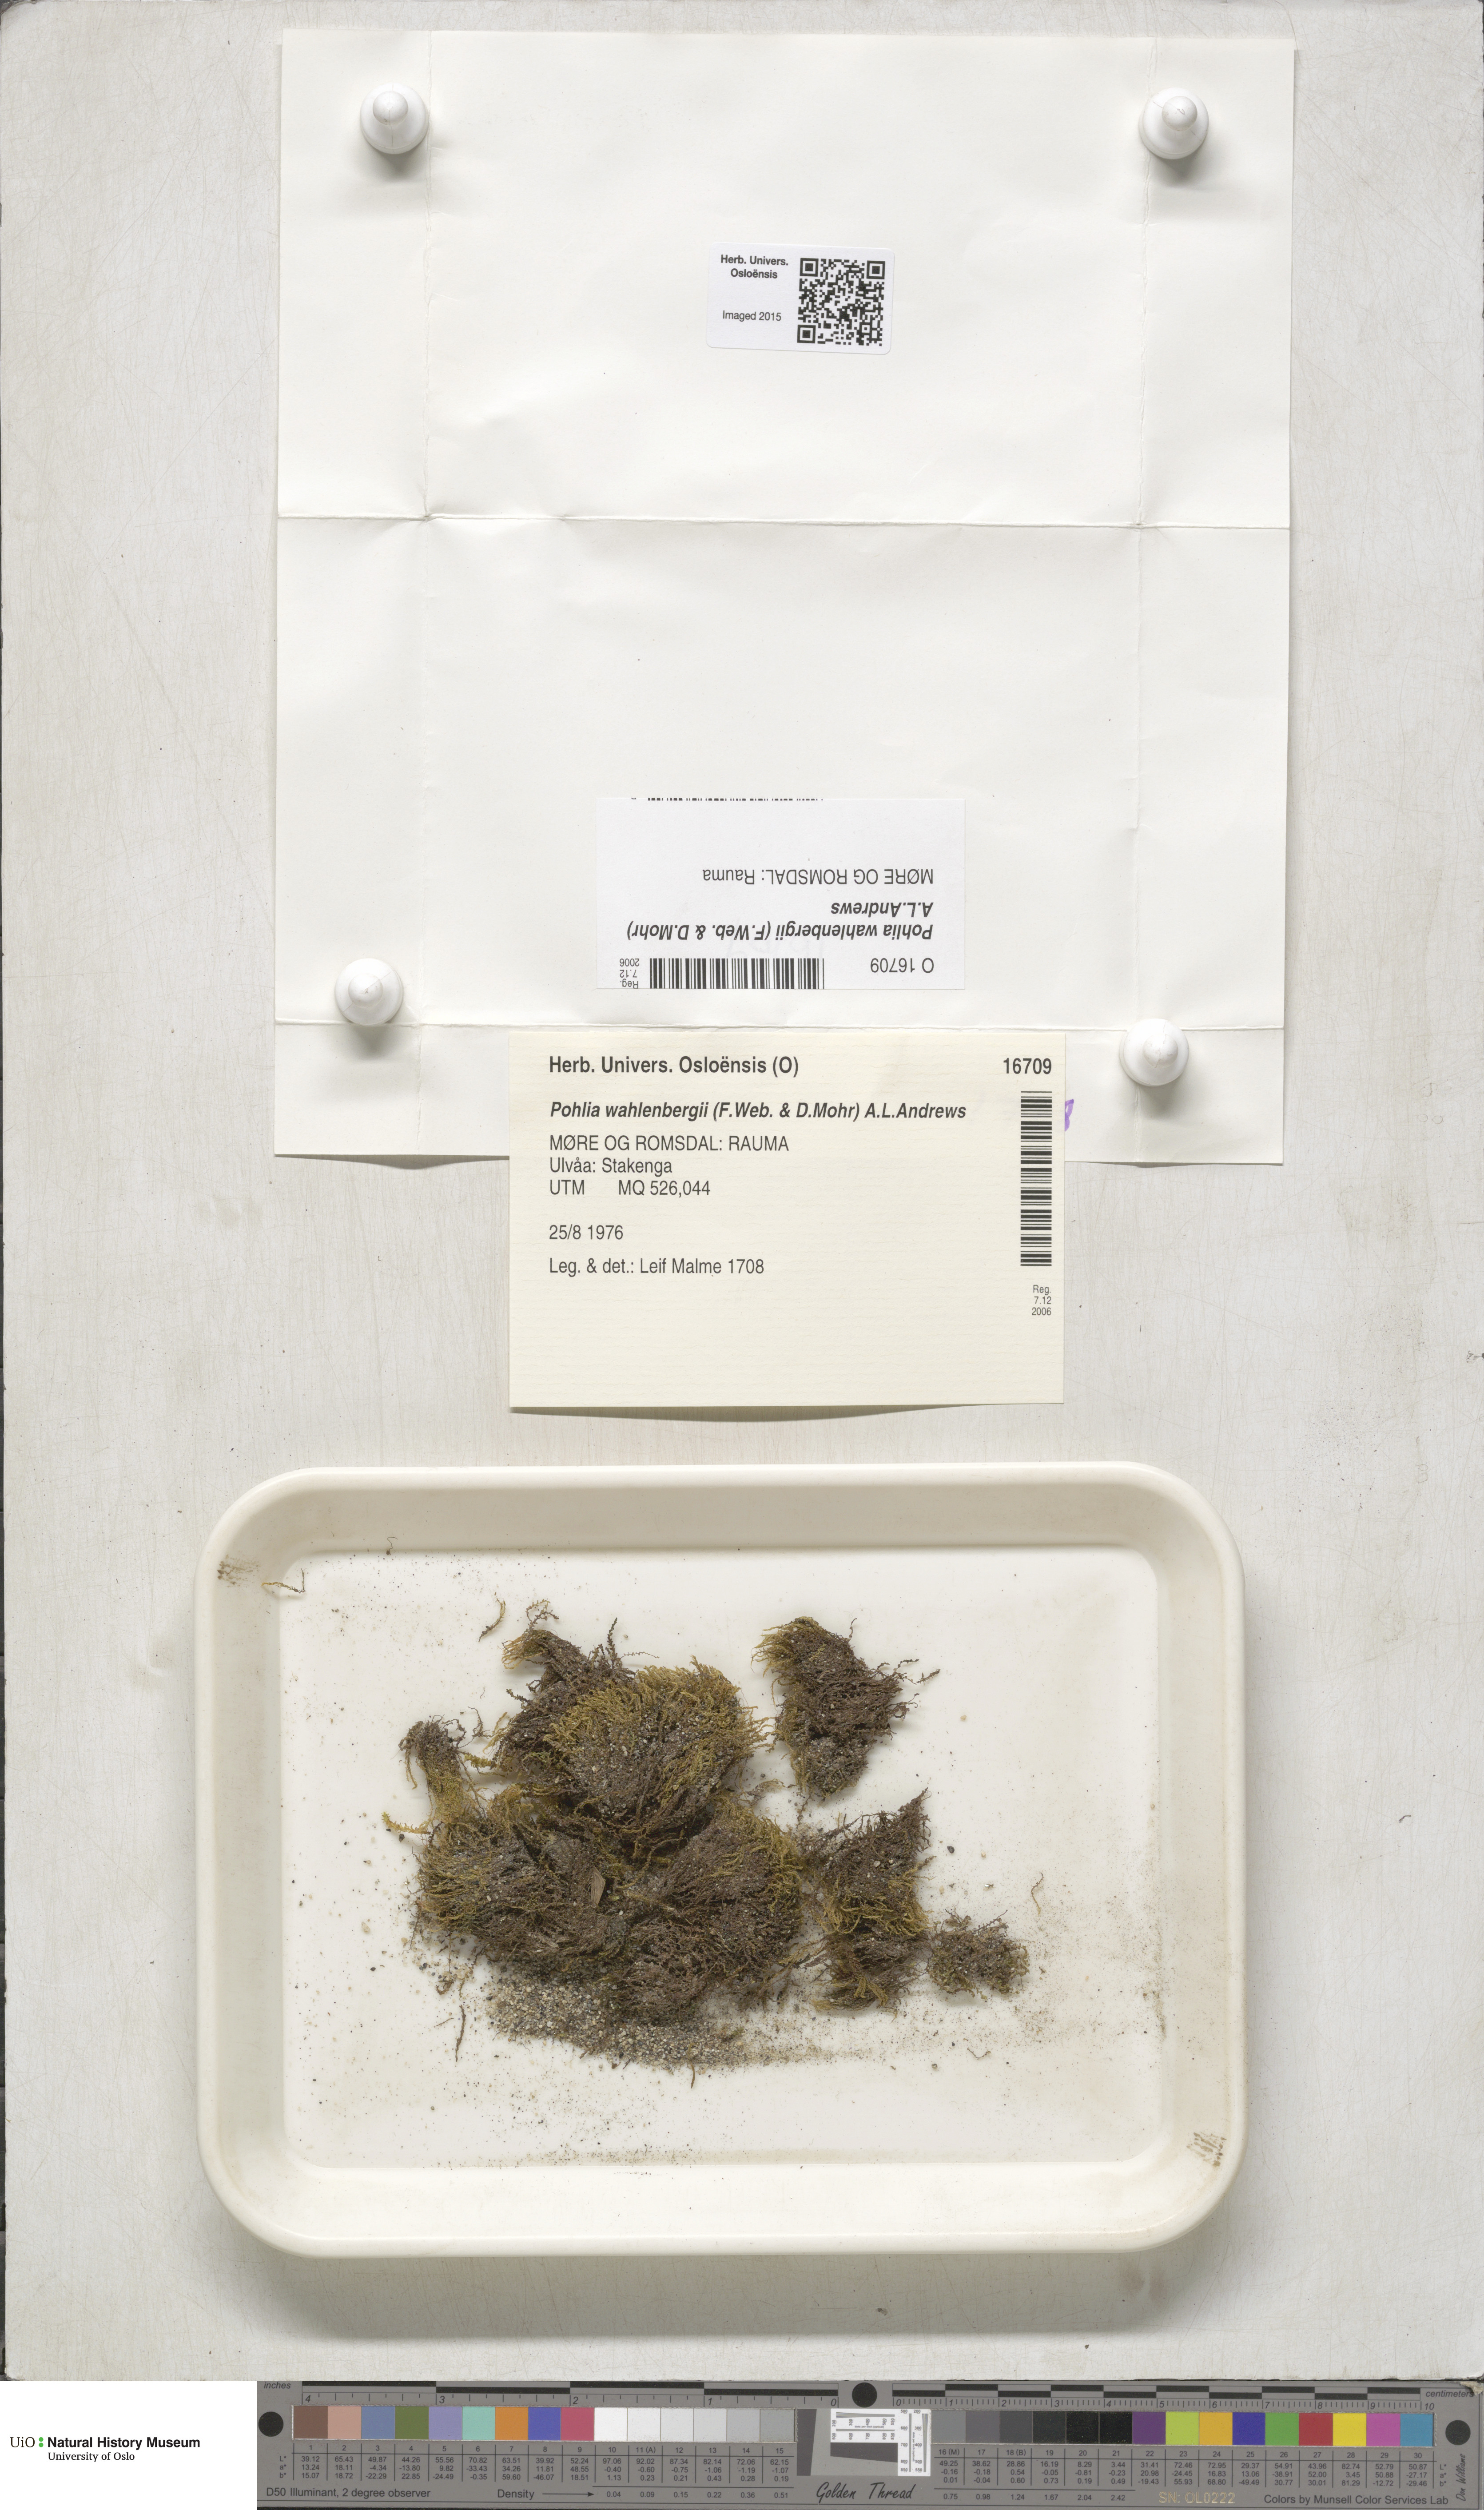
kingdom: Plantae
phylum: Bryophyta
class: Bryopsida
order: Bryales
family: Mniaceae
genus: Pohlia
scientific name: Pohlia wahlenbergii
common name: Wahlenberg's nodding moss
